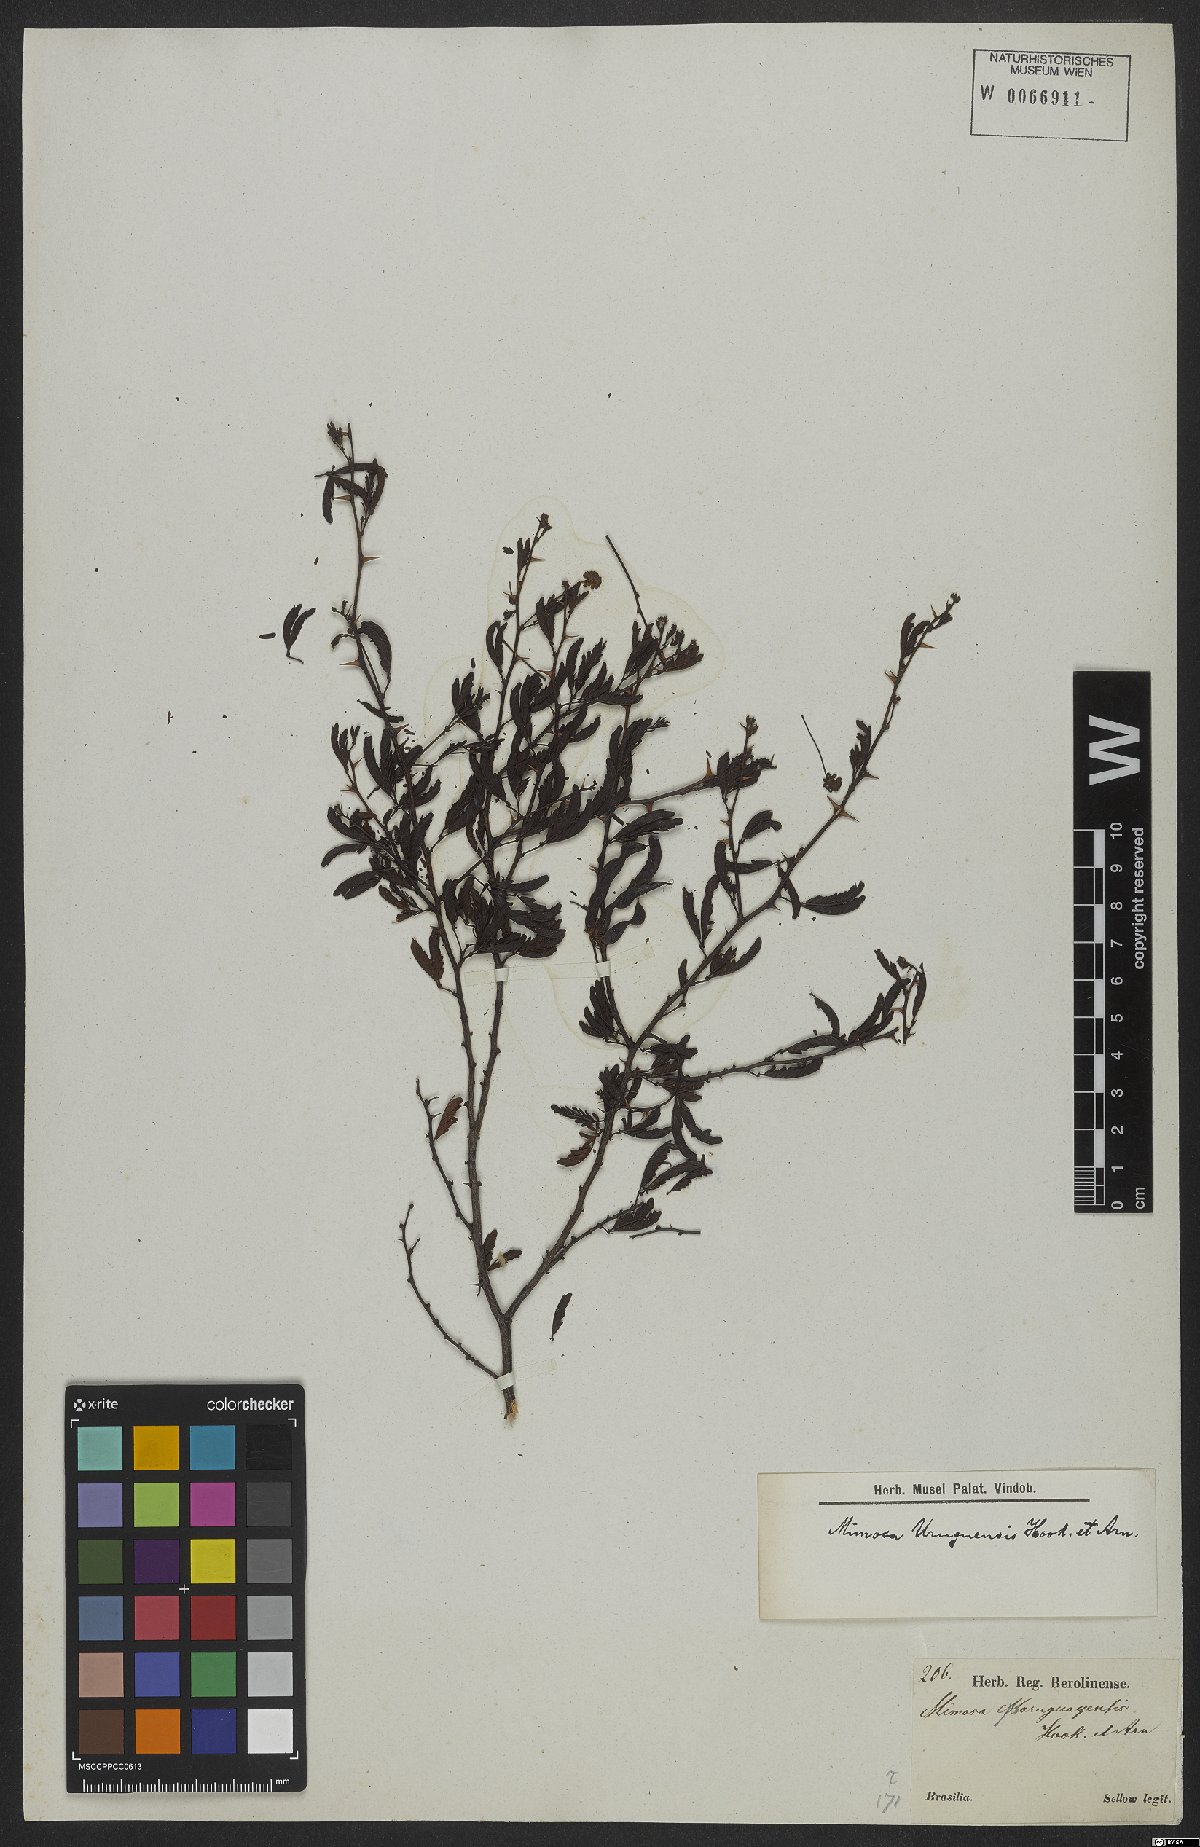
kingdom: Plantae
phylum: Tracheophyta
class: Magnoliopsida
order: Fabales
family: Fabaceae
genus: Mimosa
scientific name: Mimosa uruguensis
